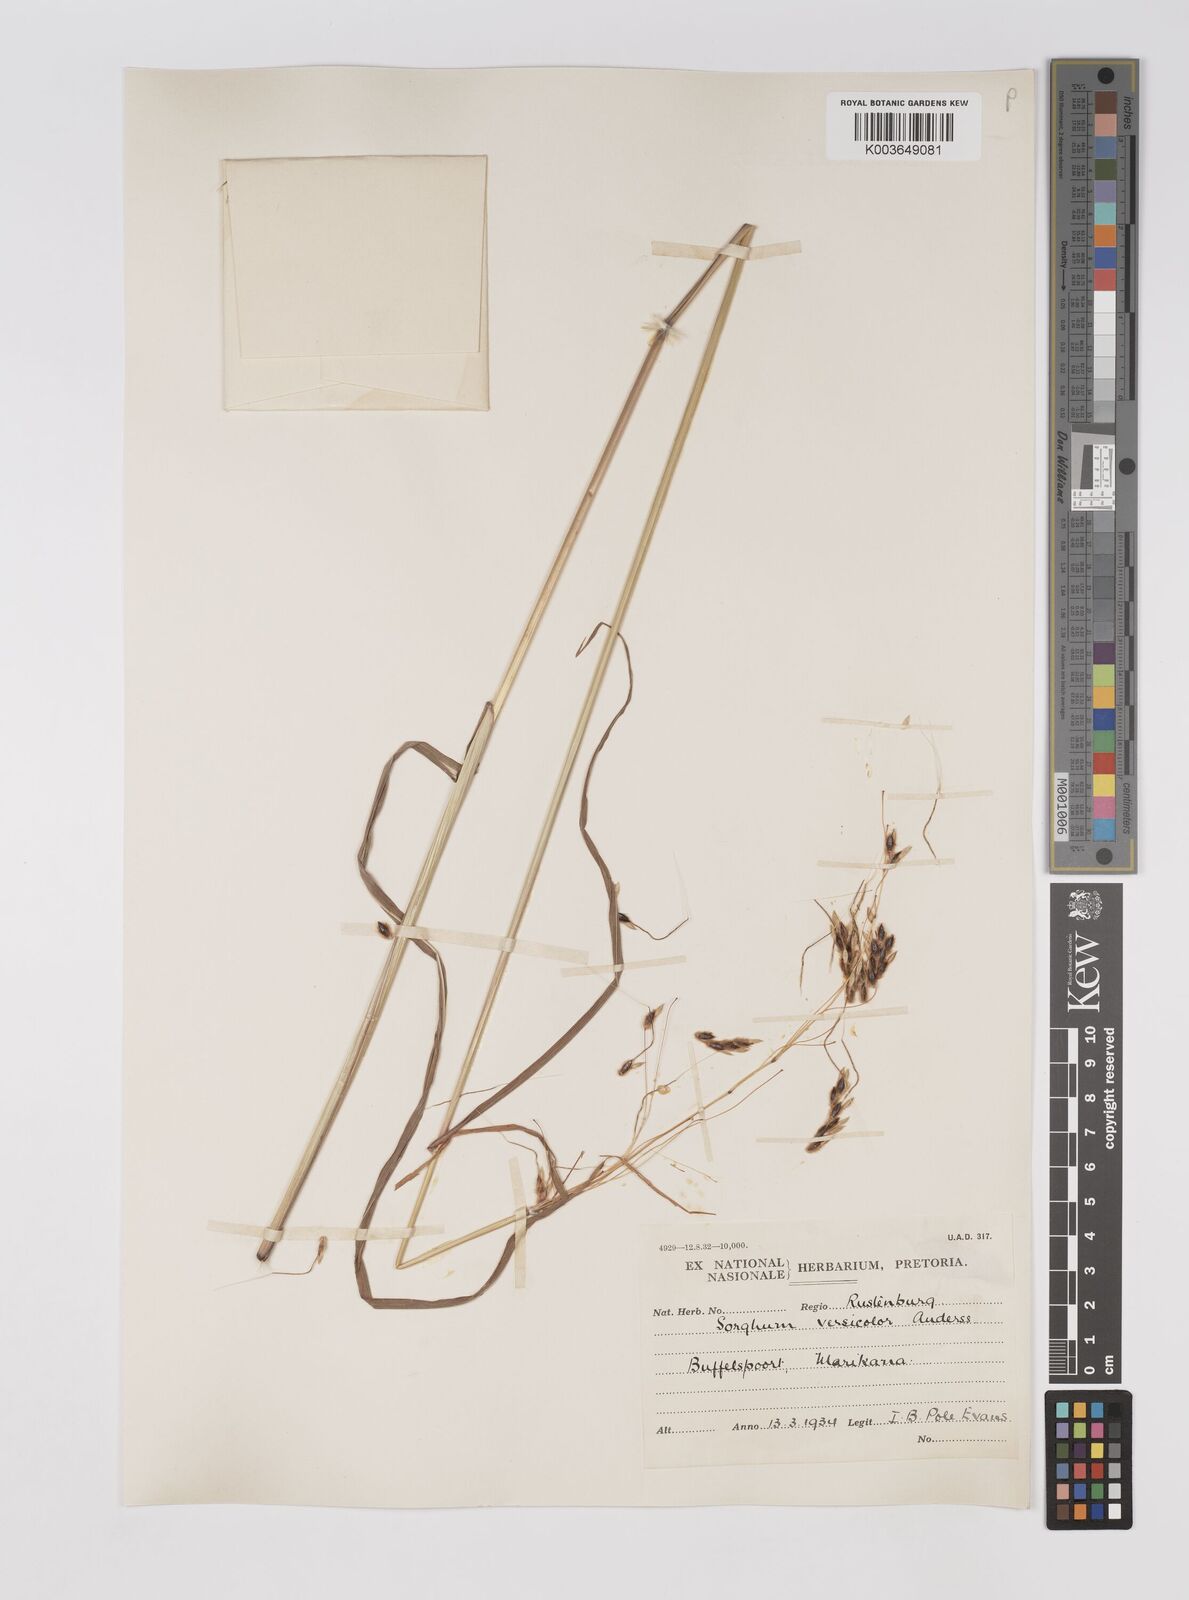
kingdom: Plantae
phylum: Tracheophyta
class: Liliopsida
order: Poales
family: Poaceae
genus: Sarga
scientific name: Sarga versicolor
